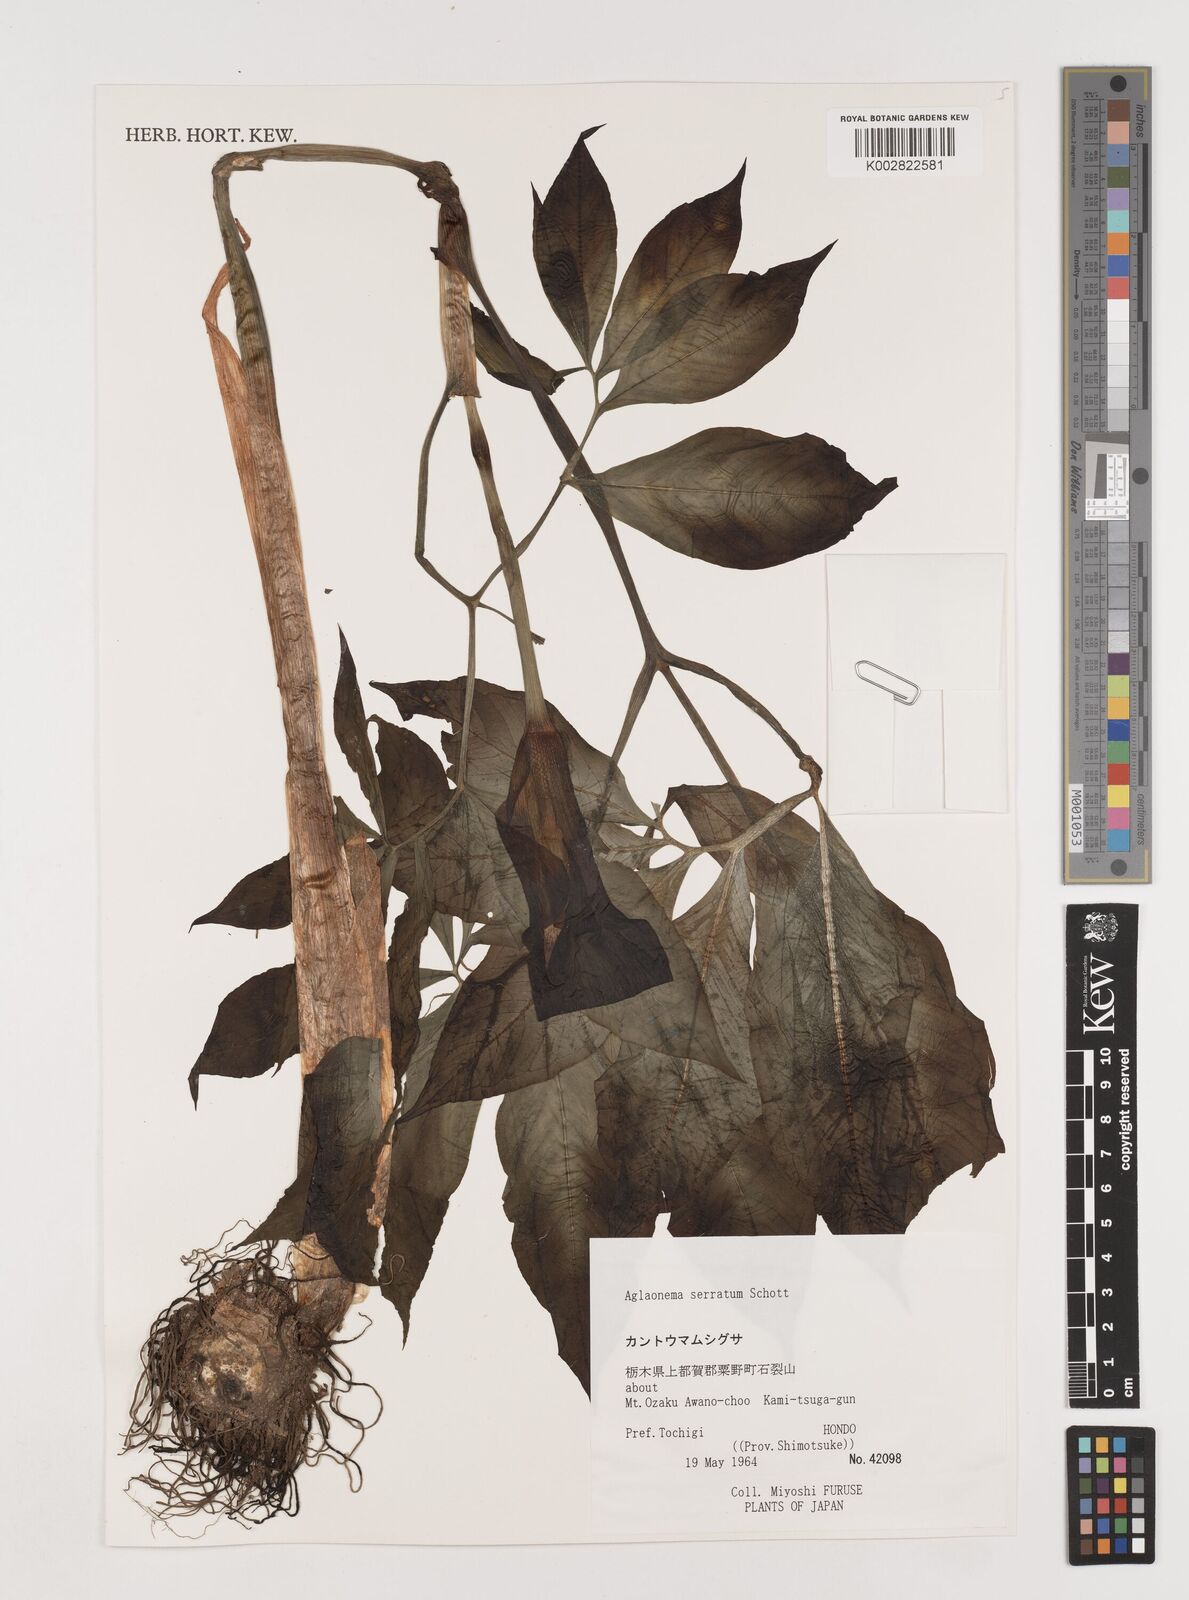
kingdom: Plantae
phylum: Tracheophyta
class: Liliopsida
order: Alismatales
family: Araceae
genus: Arisaema
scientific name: Arisaema serratum
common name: Japanese arisaema
